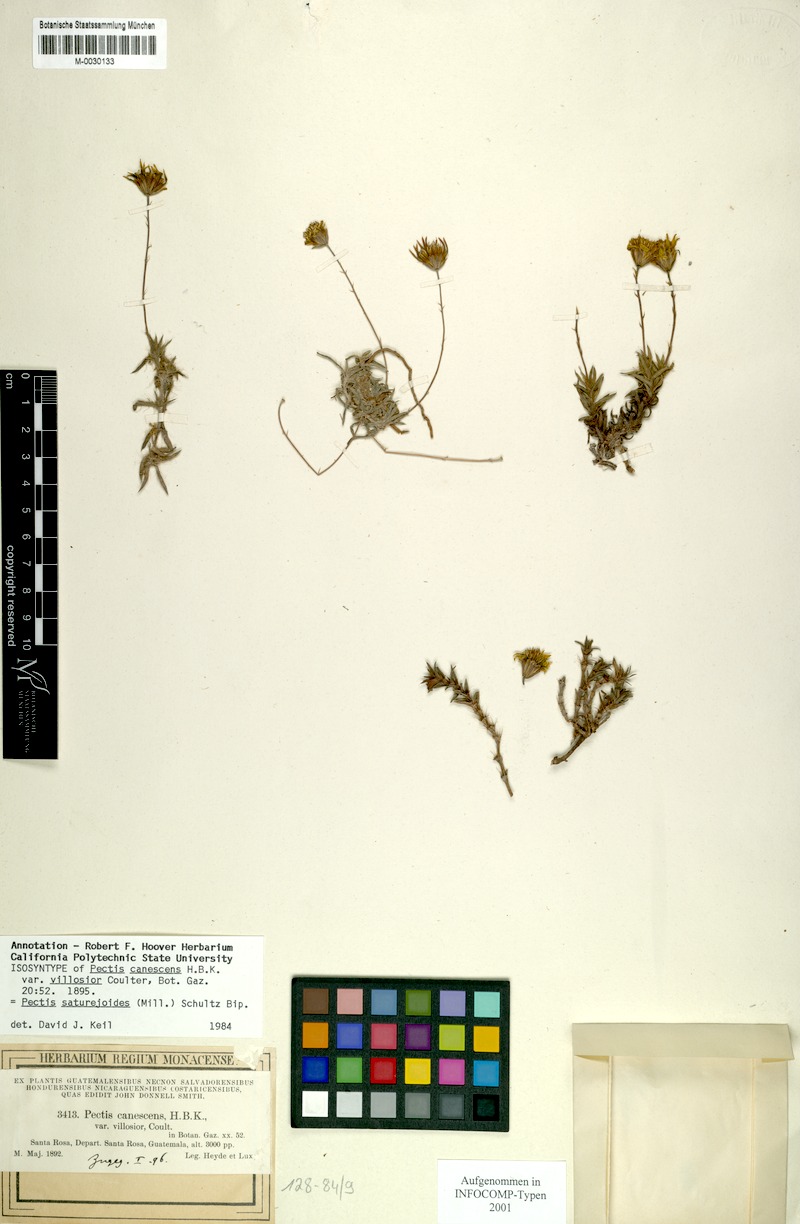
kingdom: Plantae
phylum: Tracheophyta
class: Magnoliopsida
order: Asterales
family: Asteraceae
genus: Pectis
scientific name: Pectis saturejoides
